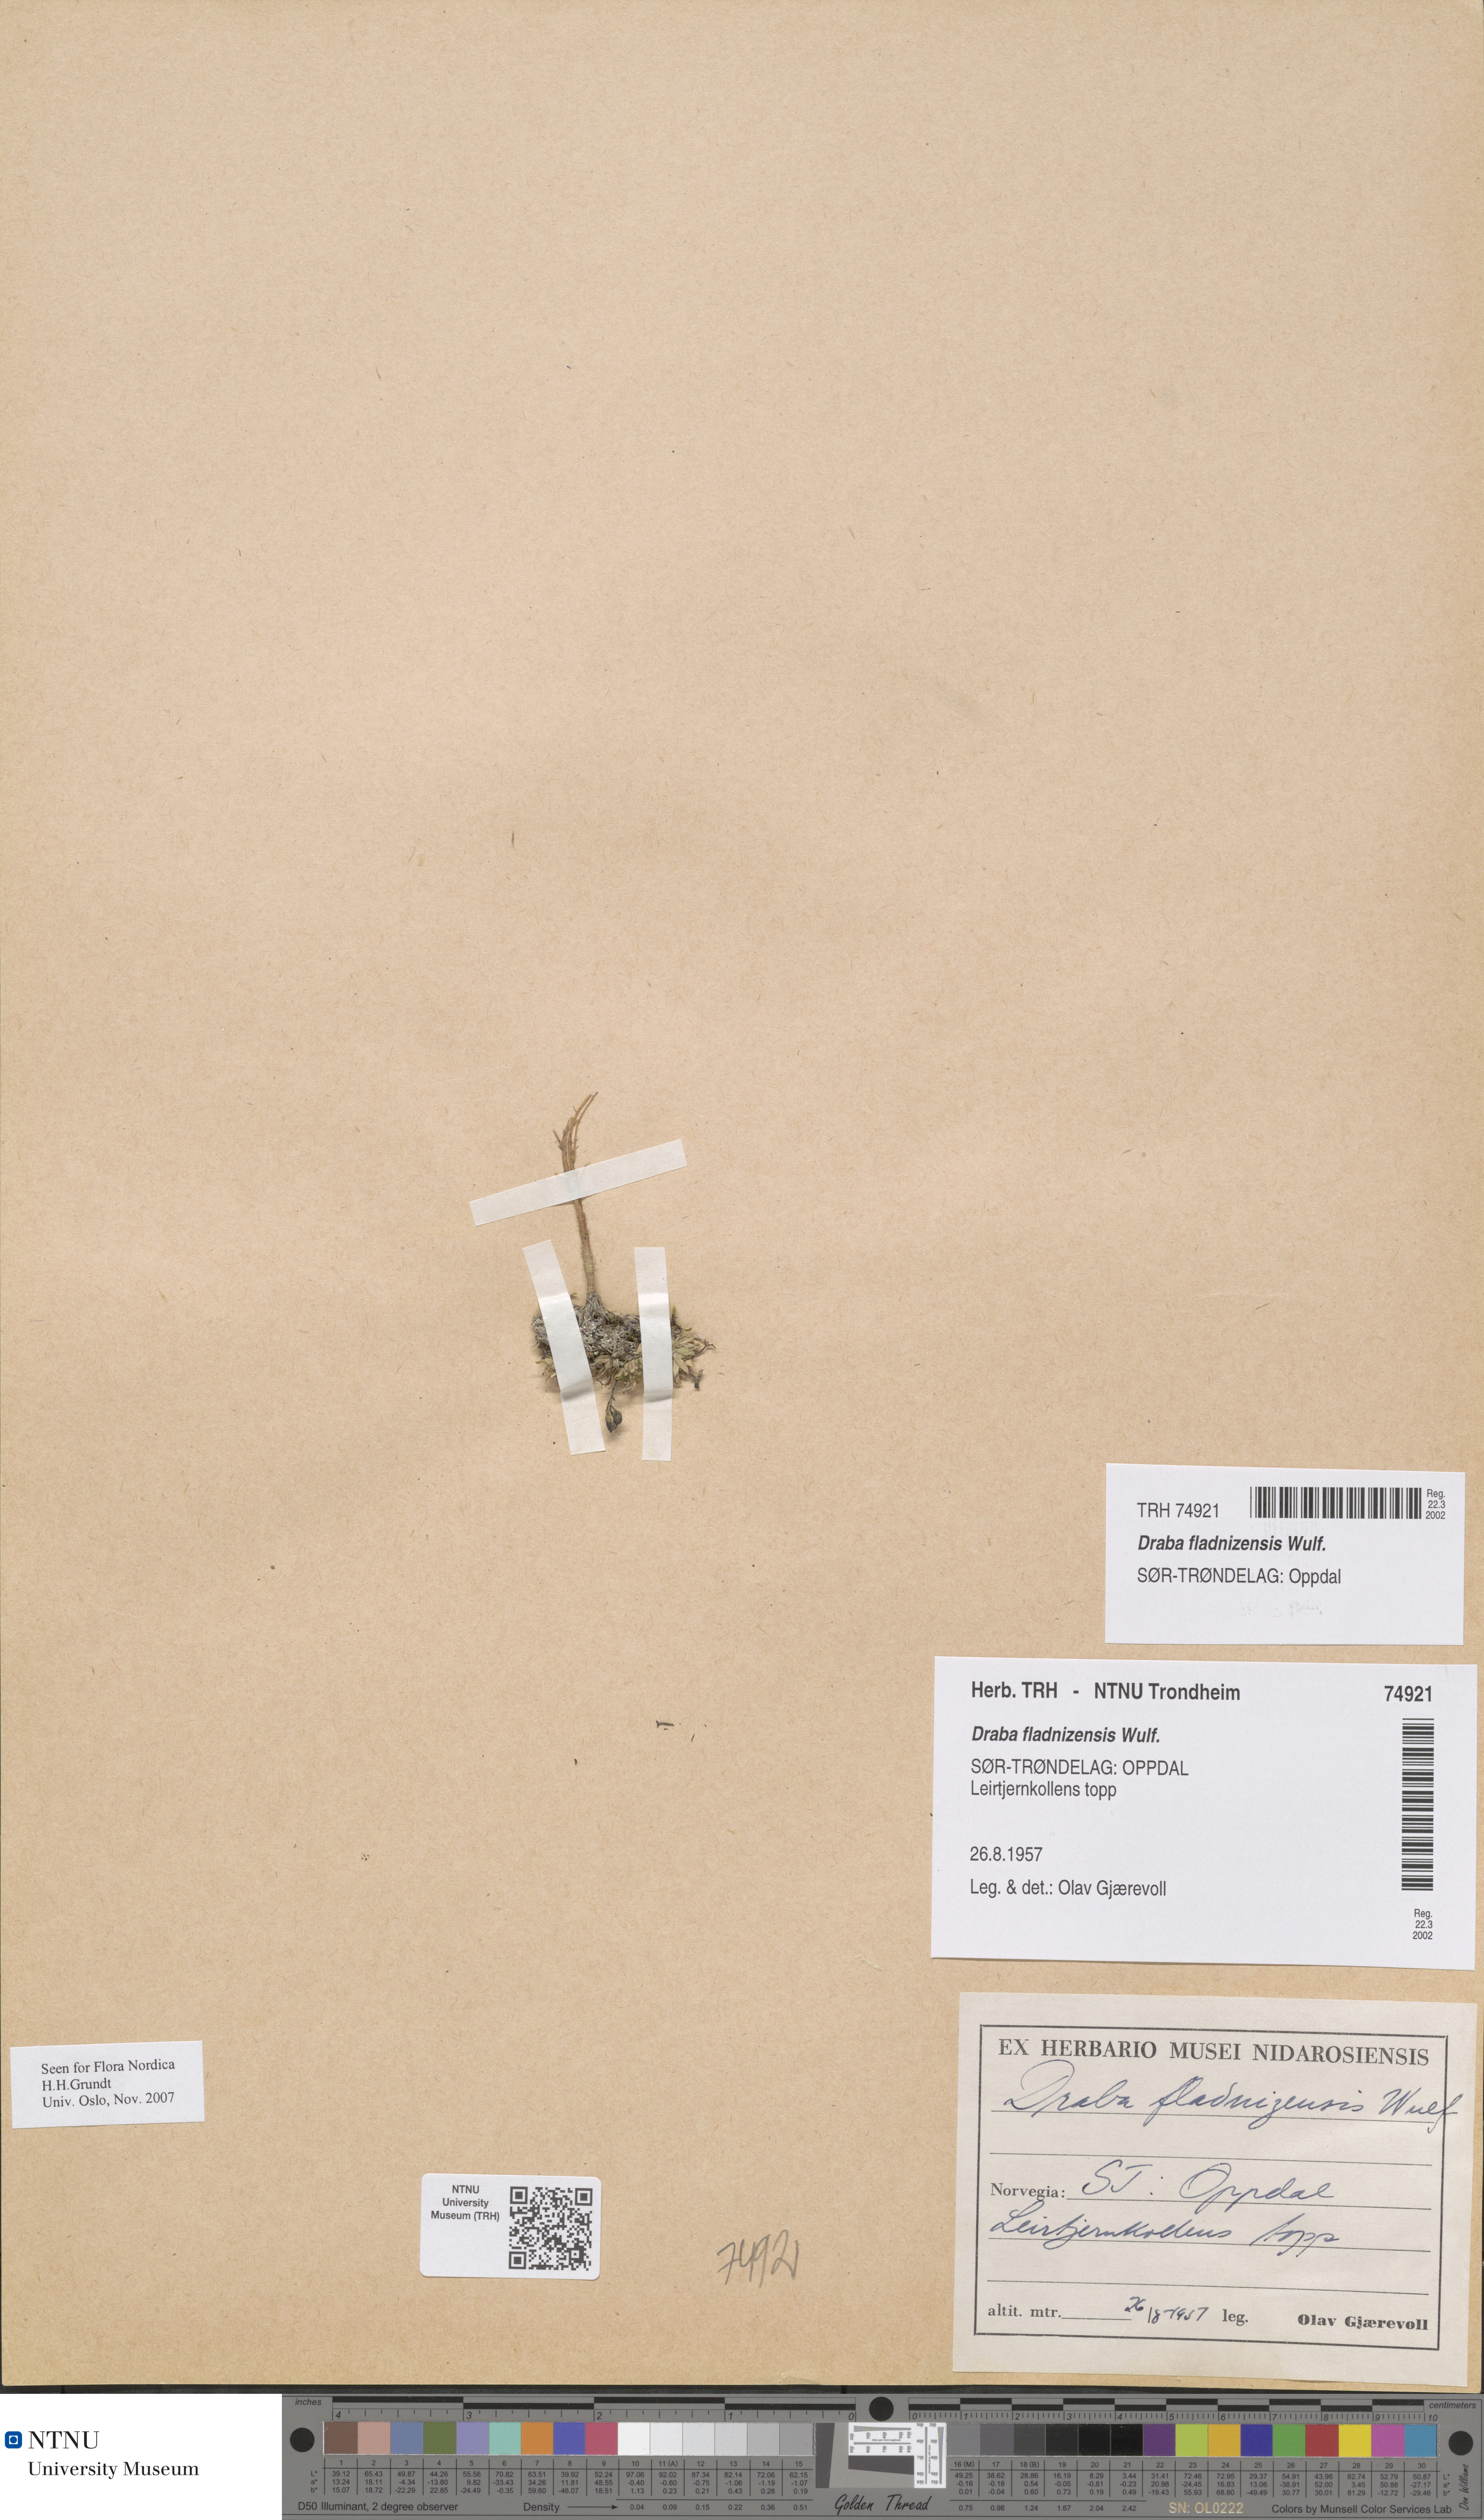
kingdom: Plantae
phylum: Tracheophyta
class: Magnoliopsida
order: Brassicales
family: Brassicaceae
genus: Draba
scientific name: Draba fladnizensis
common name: Austrian draba
